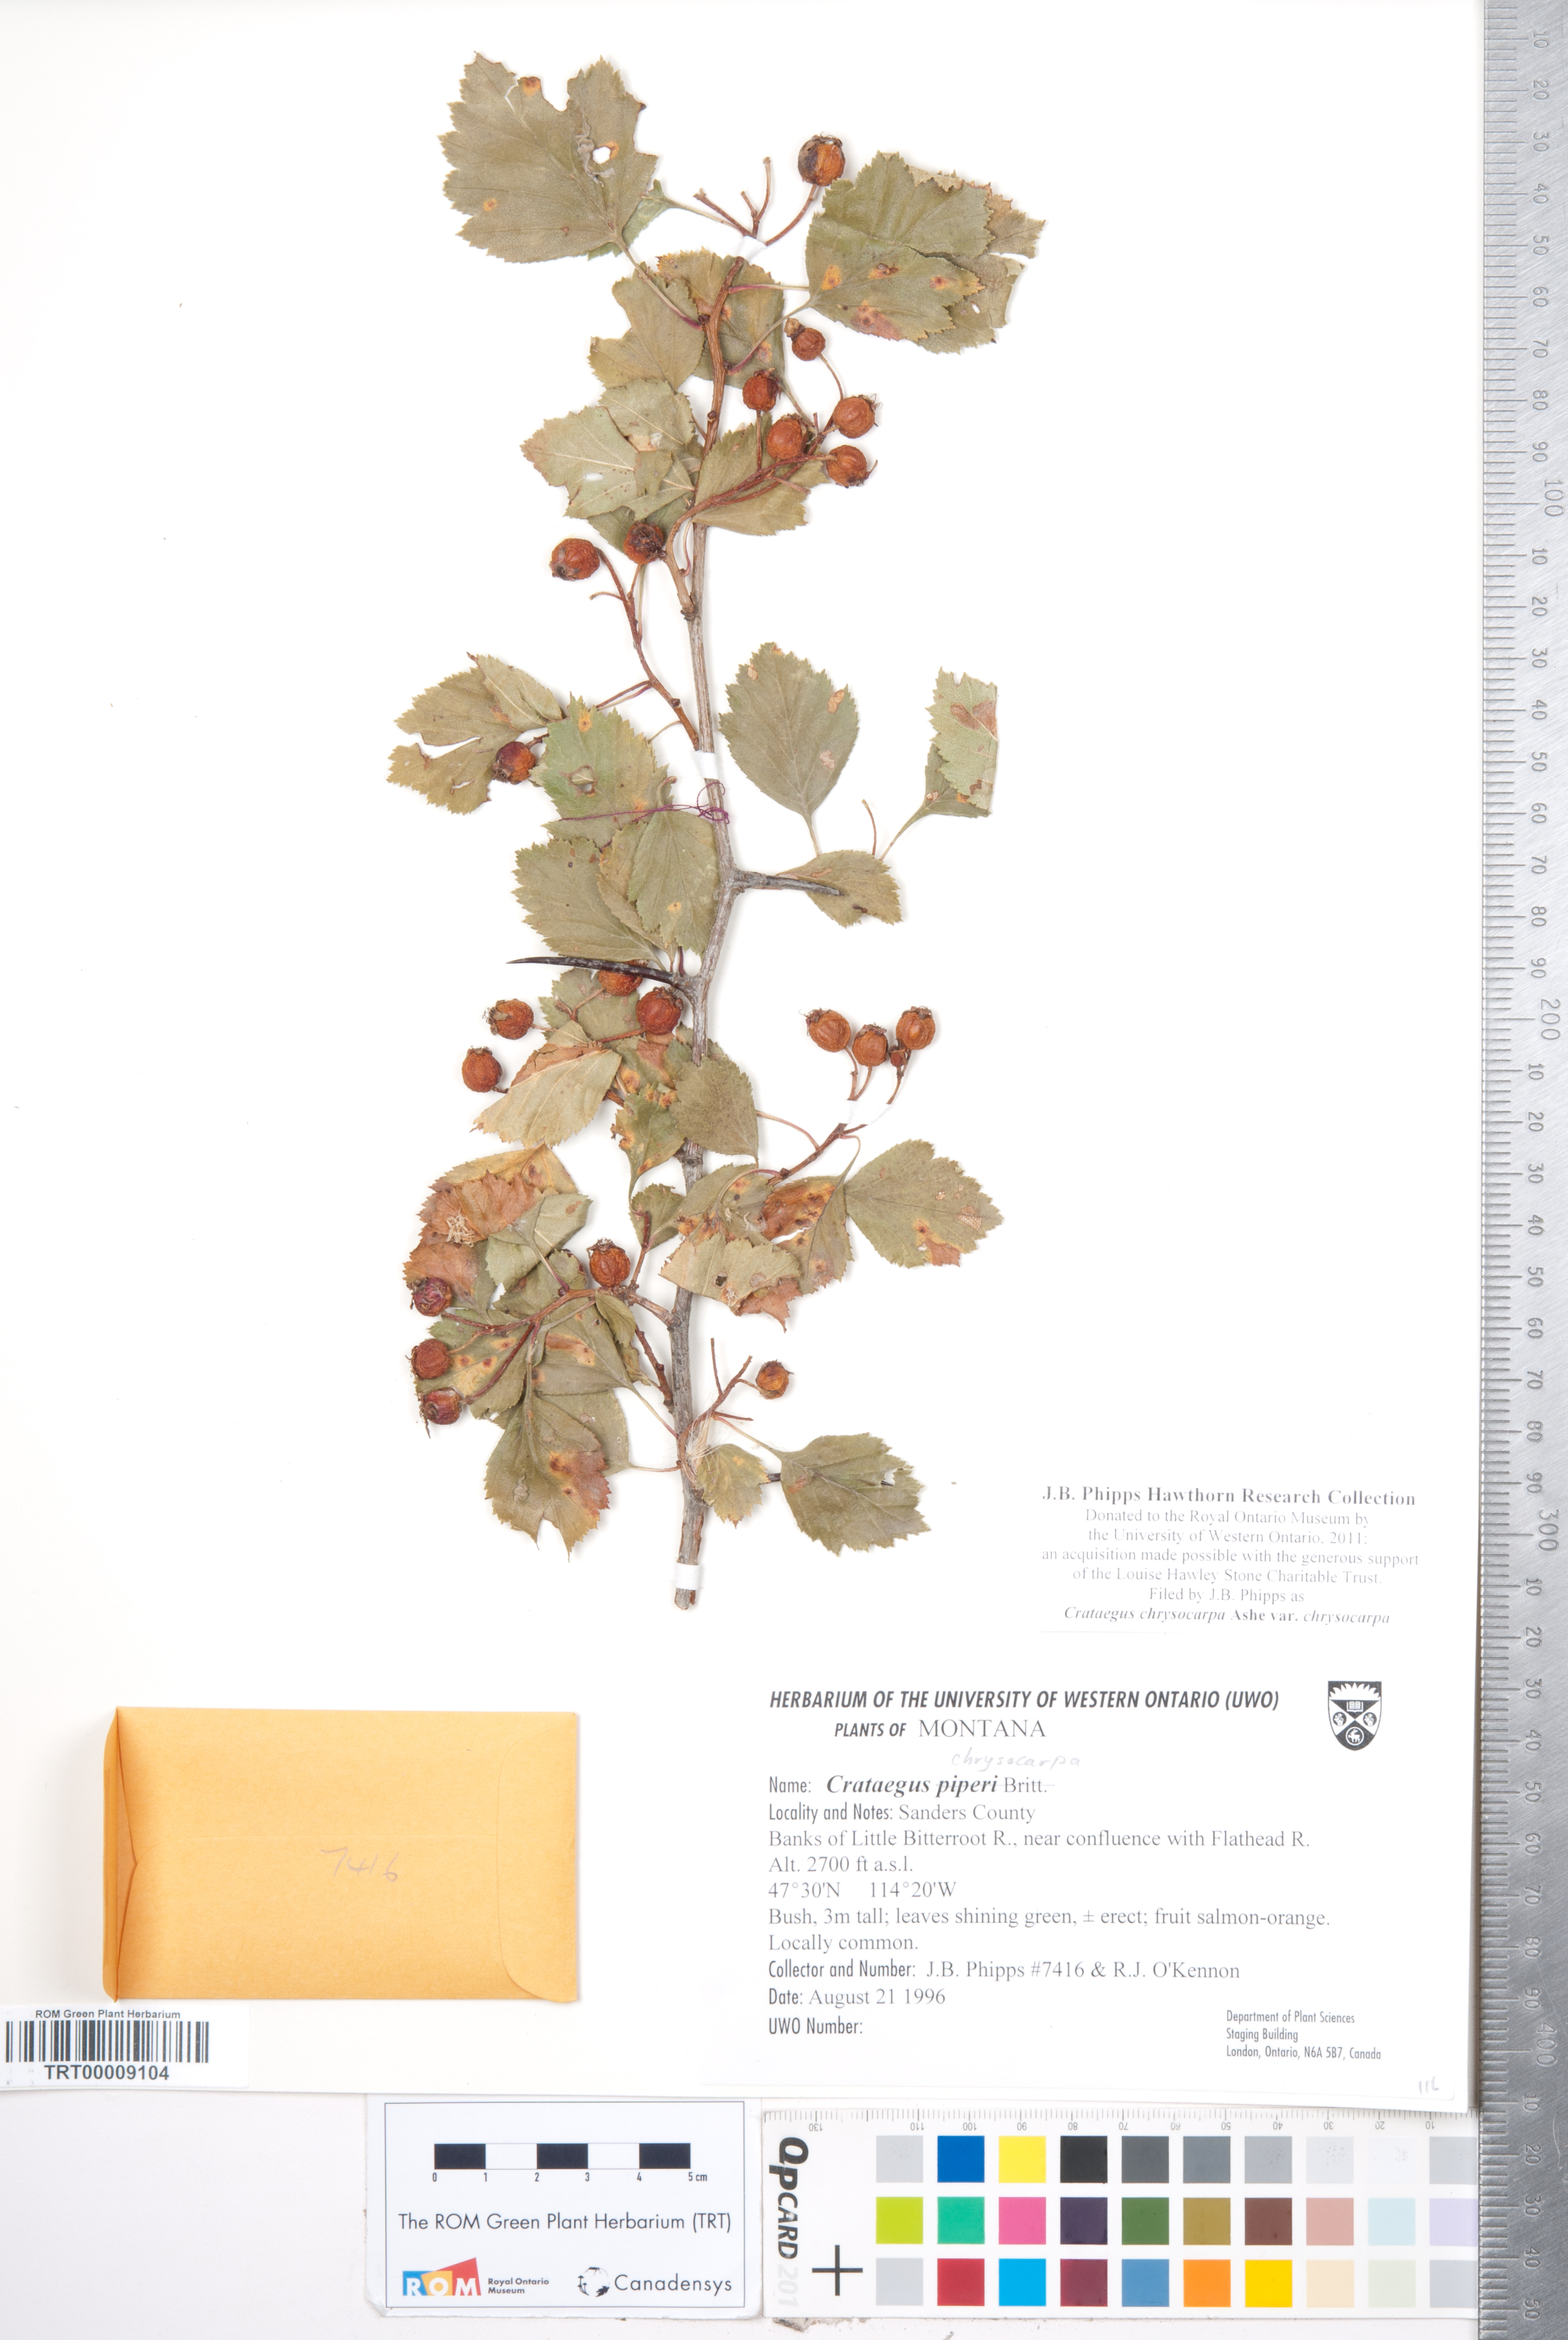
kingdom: Plantae
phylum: Tracheophyta
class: Magnoliopsida
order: Rosales
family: Rosaceae
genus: Crataegus
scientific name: Crataegus chrysocarpa
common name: Fire-berry hawthorn
